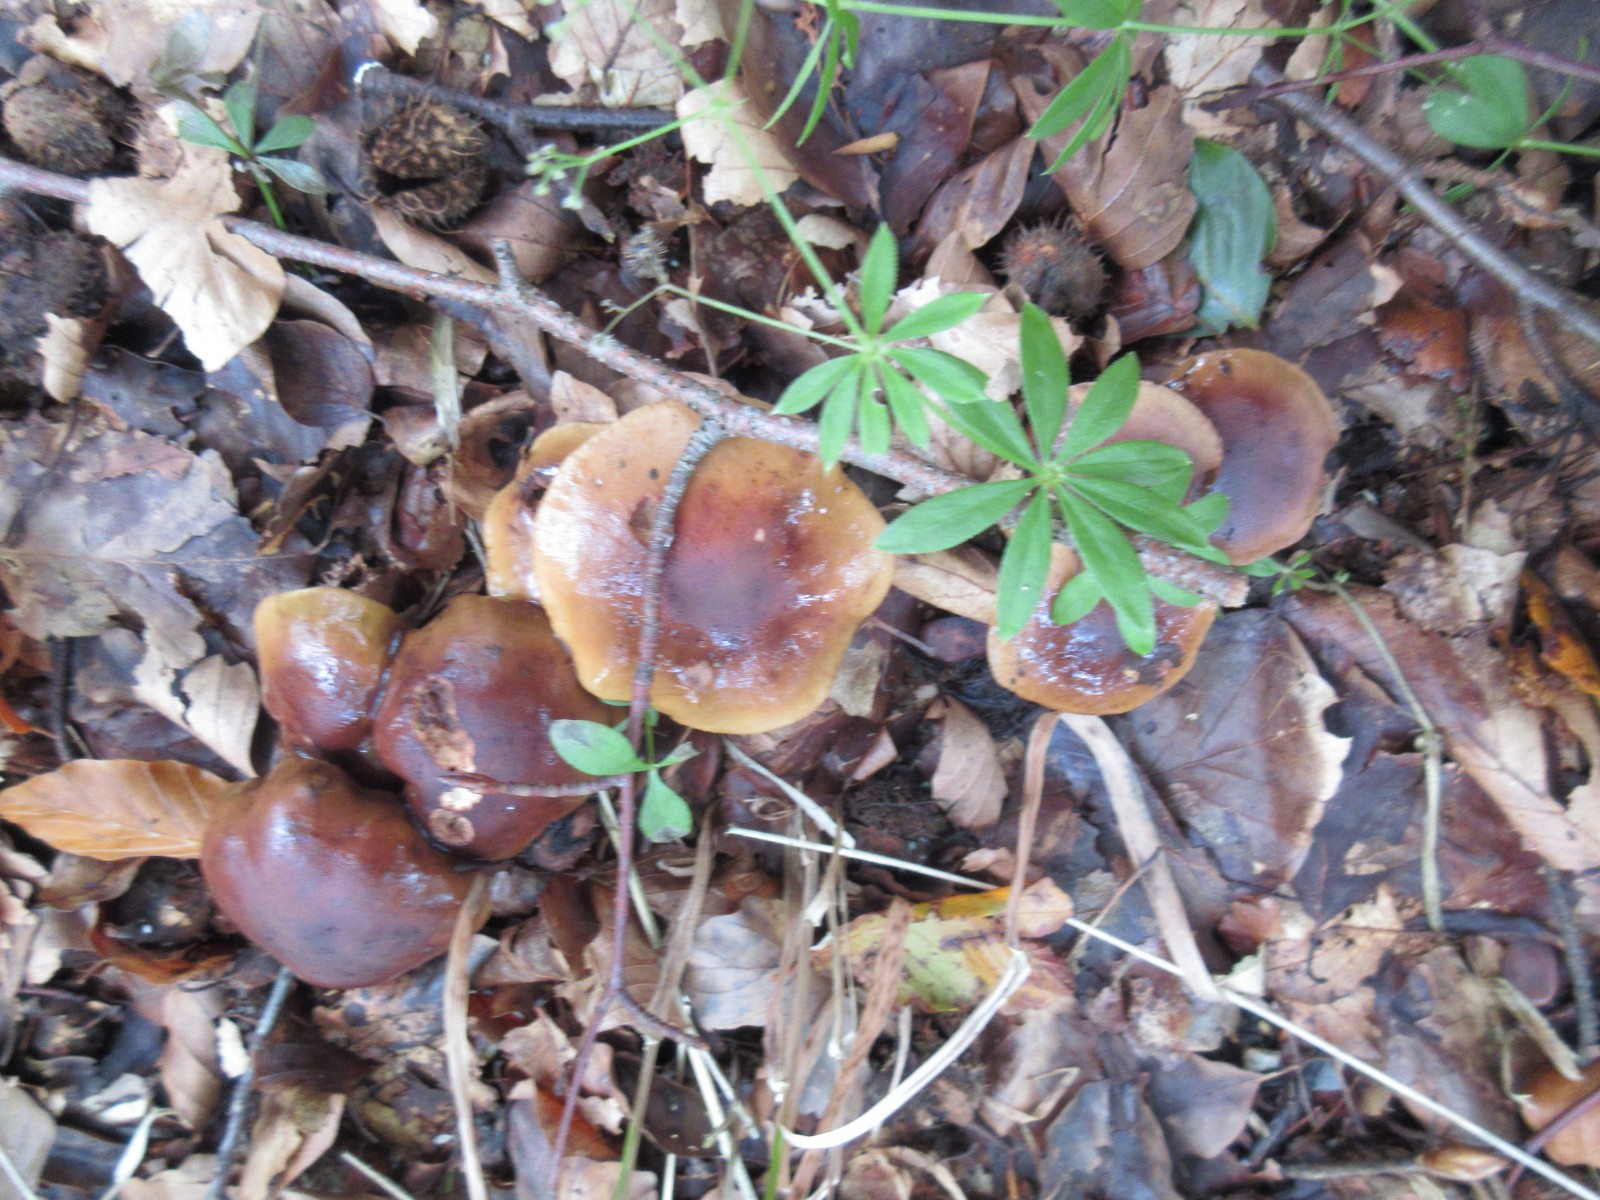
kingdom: Fungi
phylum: Basidiomycota
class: Agaricomycetes
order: Agaricales
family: Tricholomataceae
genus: Tricholoma
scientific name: Tricholoma ustale
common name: sveden ridderhat
